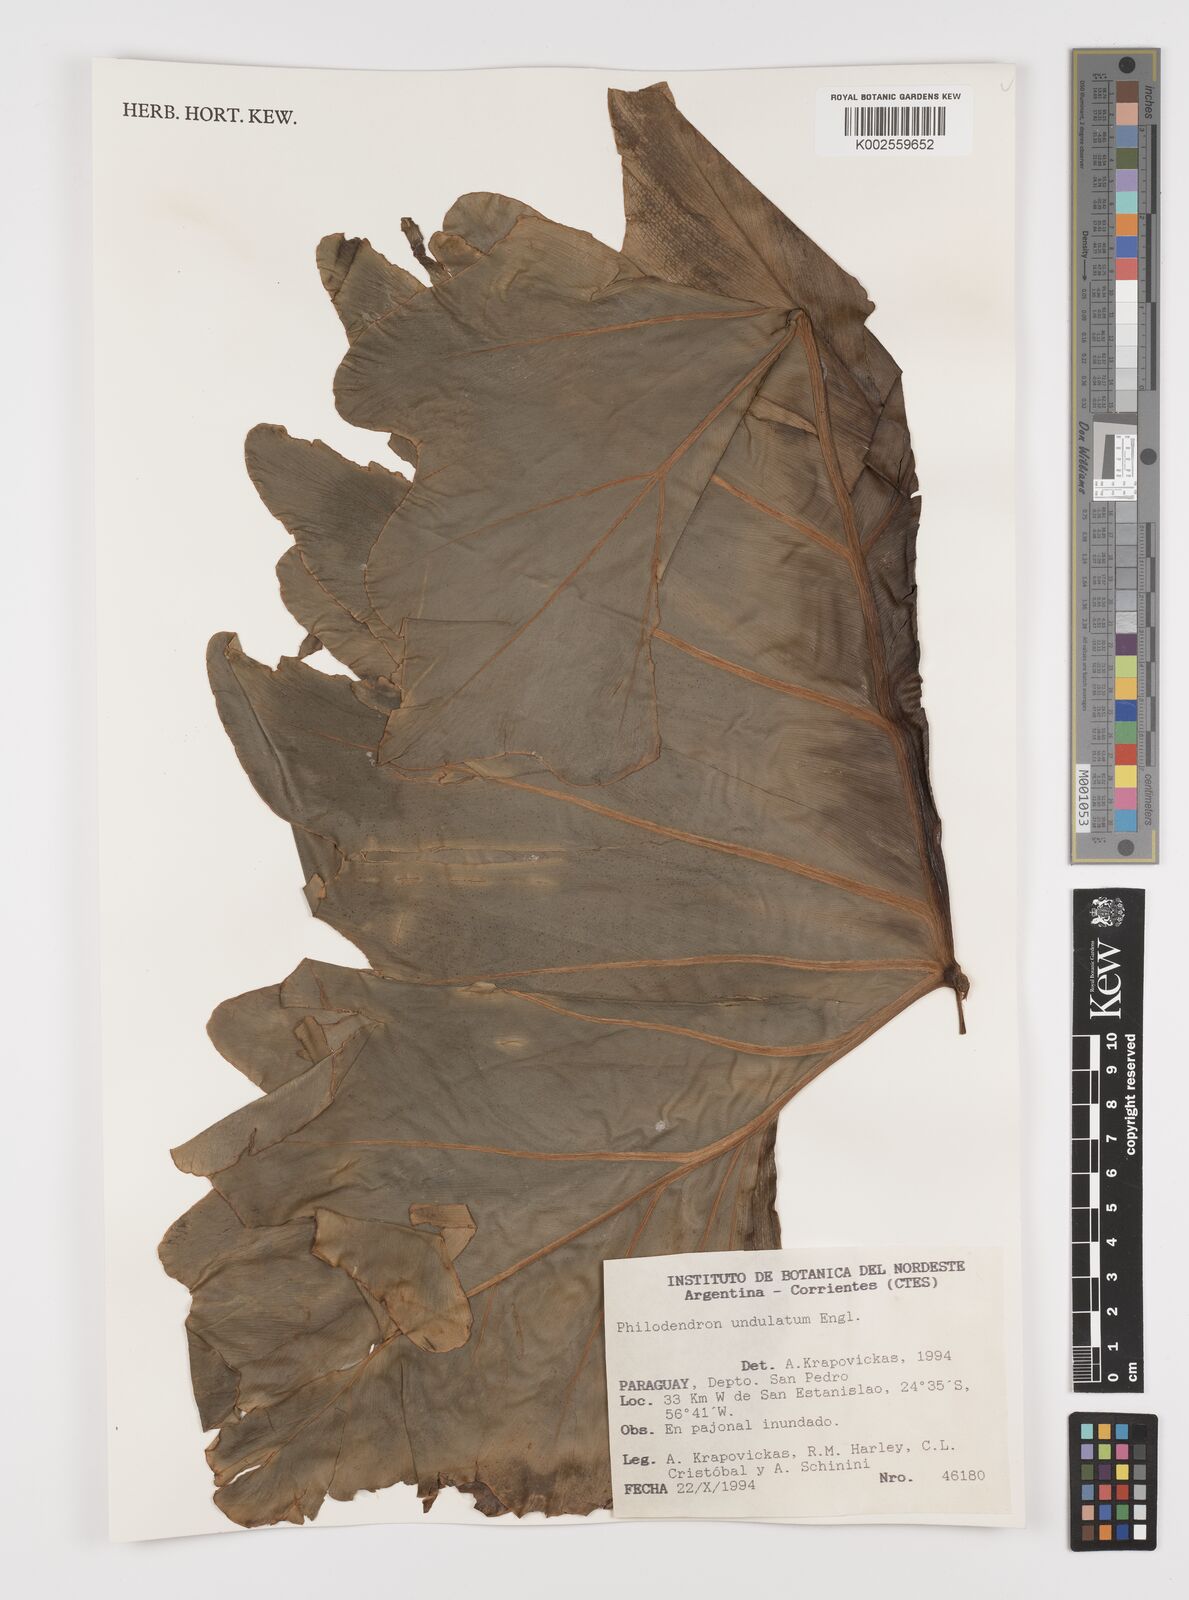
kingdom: Plantae
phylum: Tracheophyta
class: Liliopsida
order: Alismatales
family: Araceae
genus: Thaumatophyllum
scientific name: Thaumatophyllum undulatum
